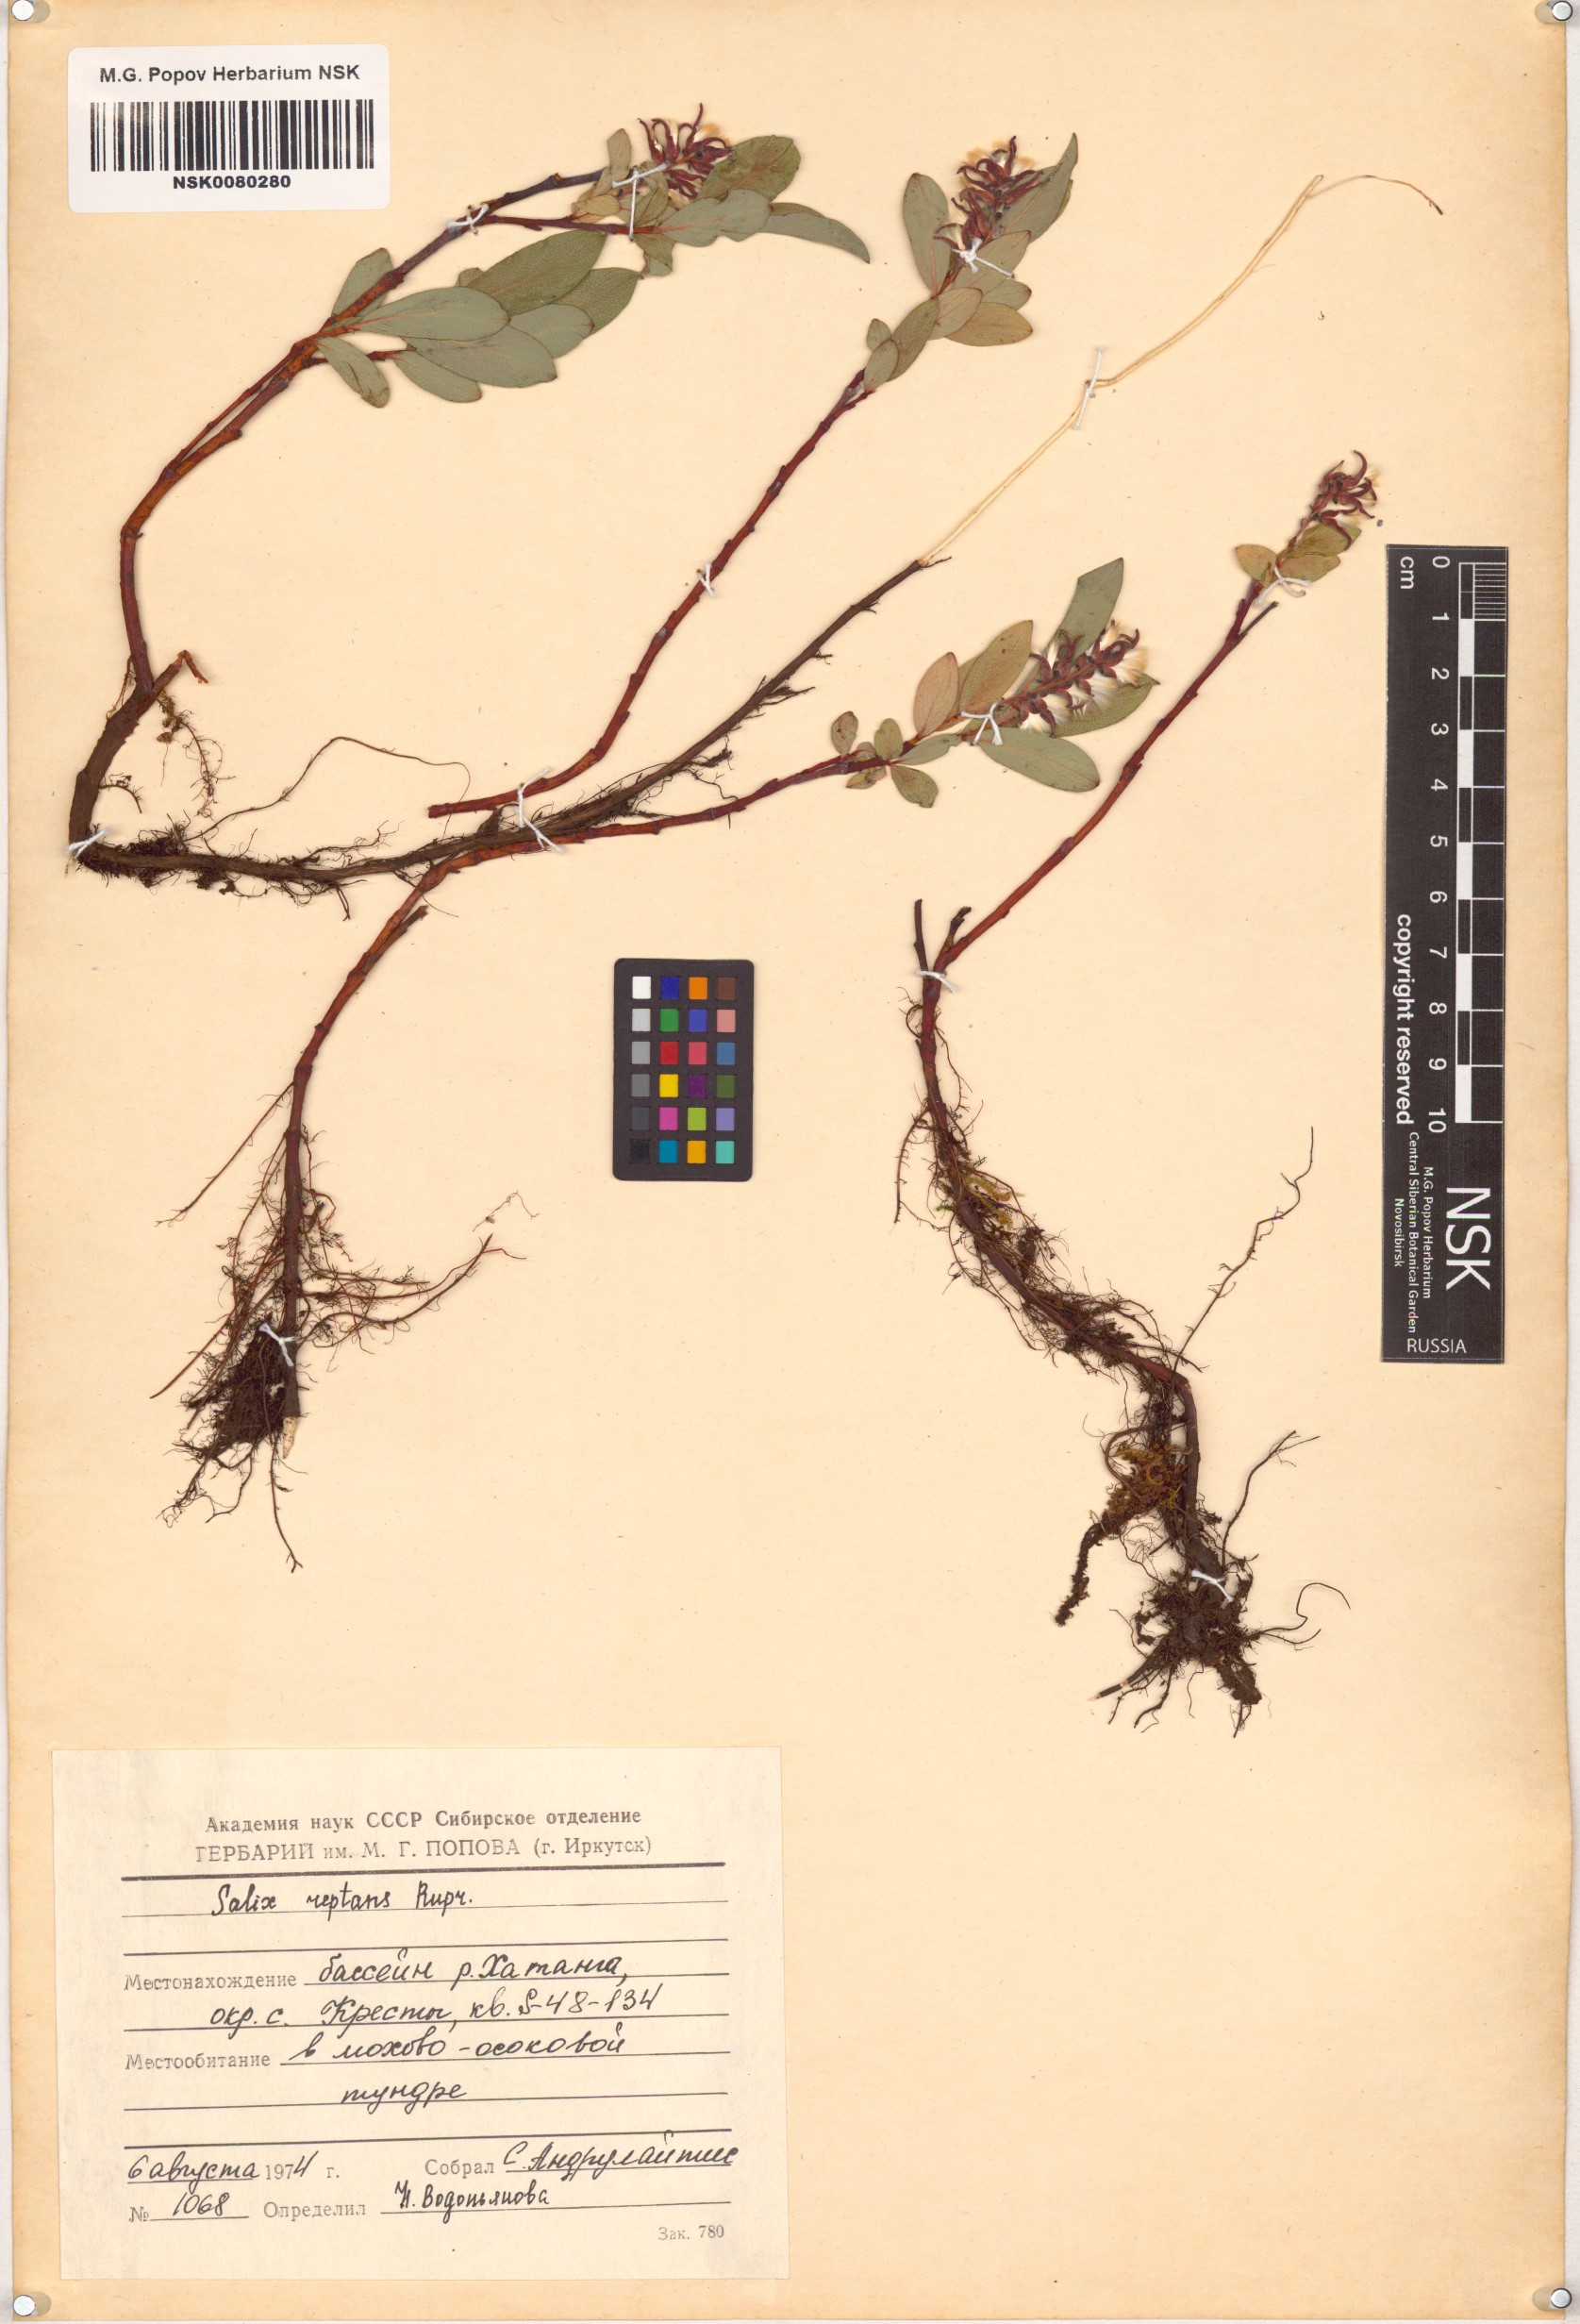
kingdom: Plantae
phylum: Tracheophyta
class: Magnoliopsida
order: Malpighiales
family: Salicaceae
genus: Salix
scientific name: Salix reptans
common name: Arctic creeping willow
